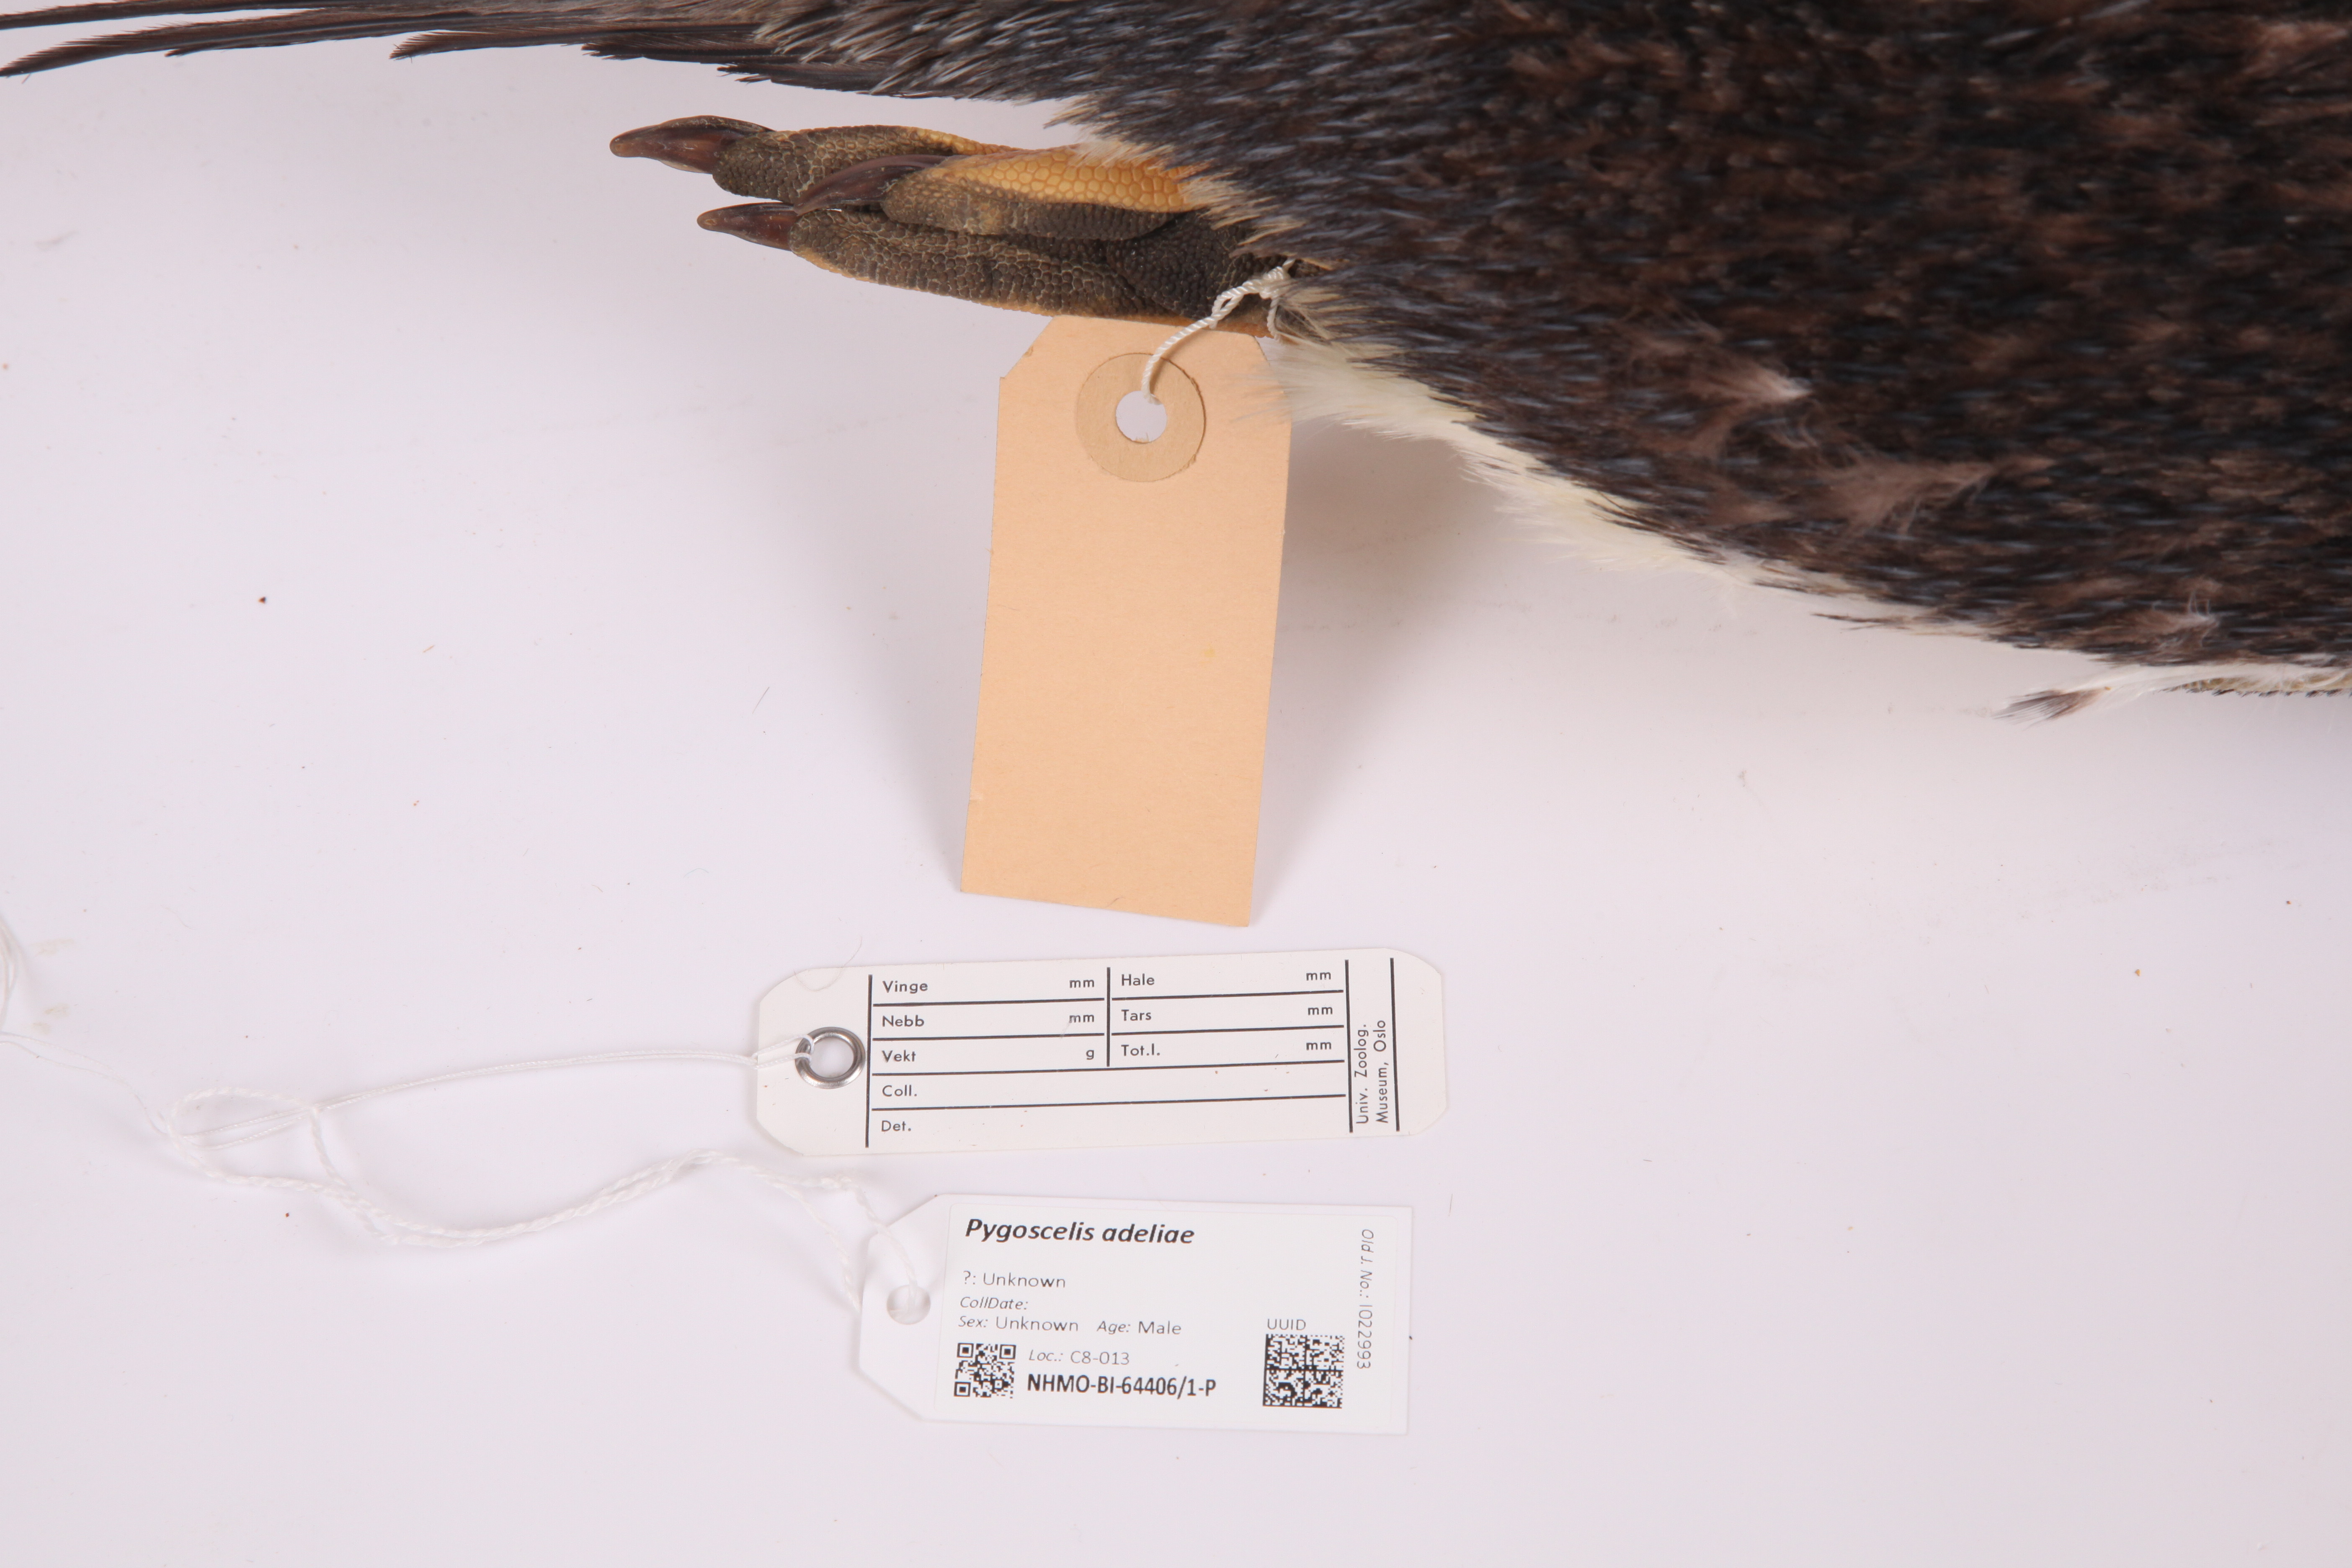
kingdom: Animalia
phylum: Chordata
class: Aves
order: Sphenisciformes
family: Spheniscidae
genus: Pygoscelis
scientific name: Pygoscelis adeliae
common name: Adelie penguin
